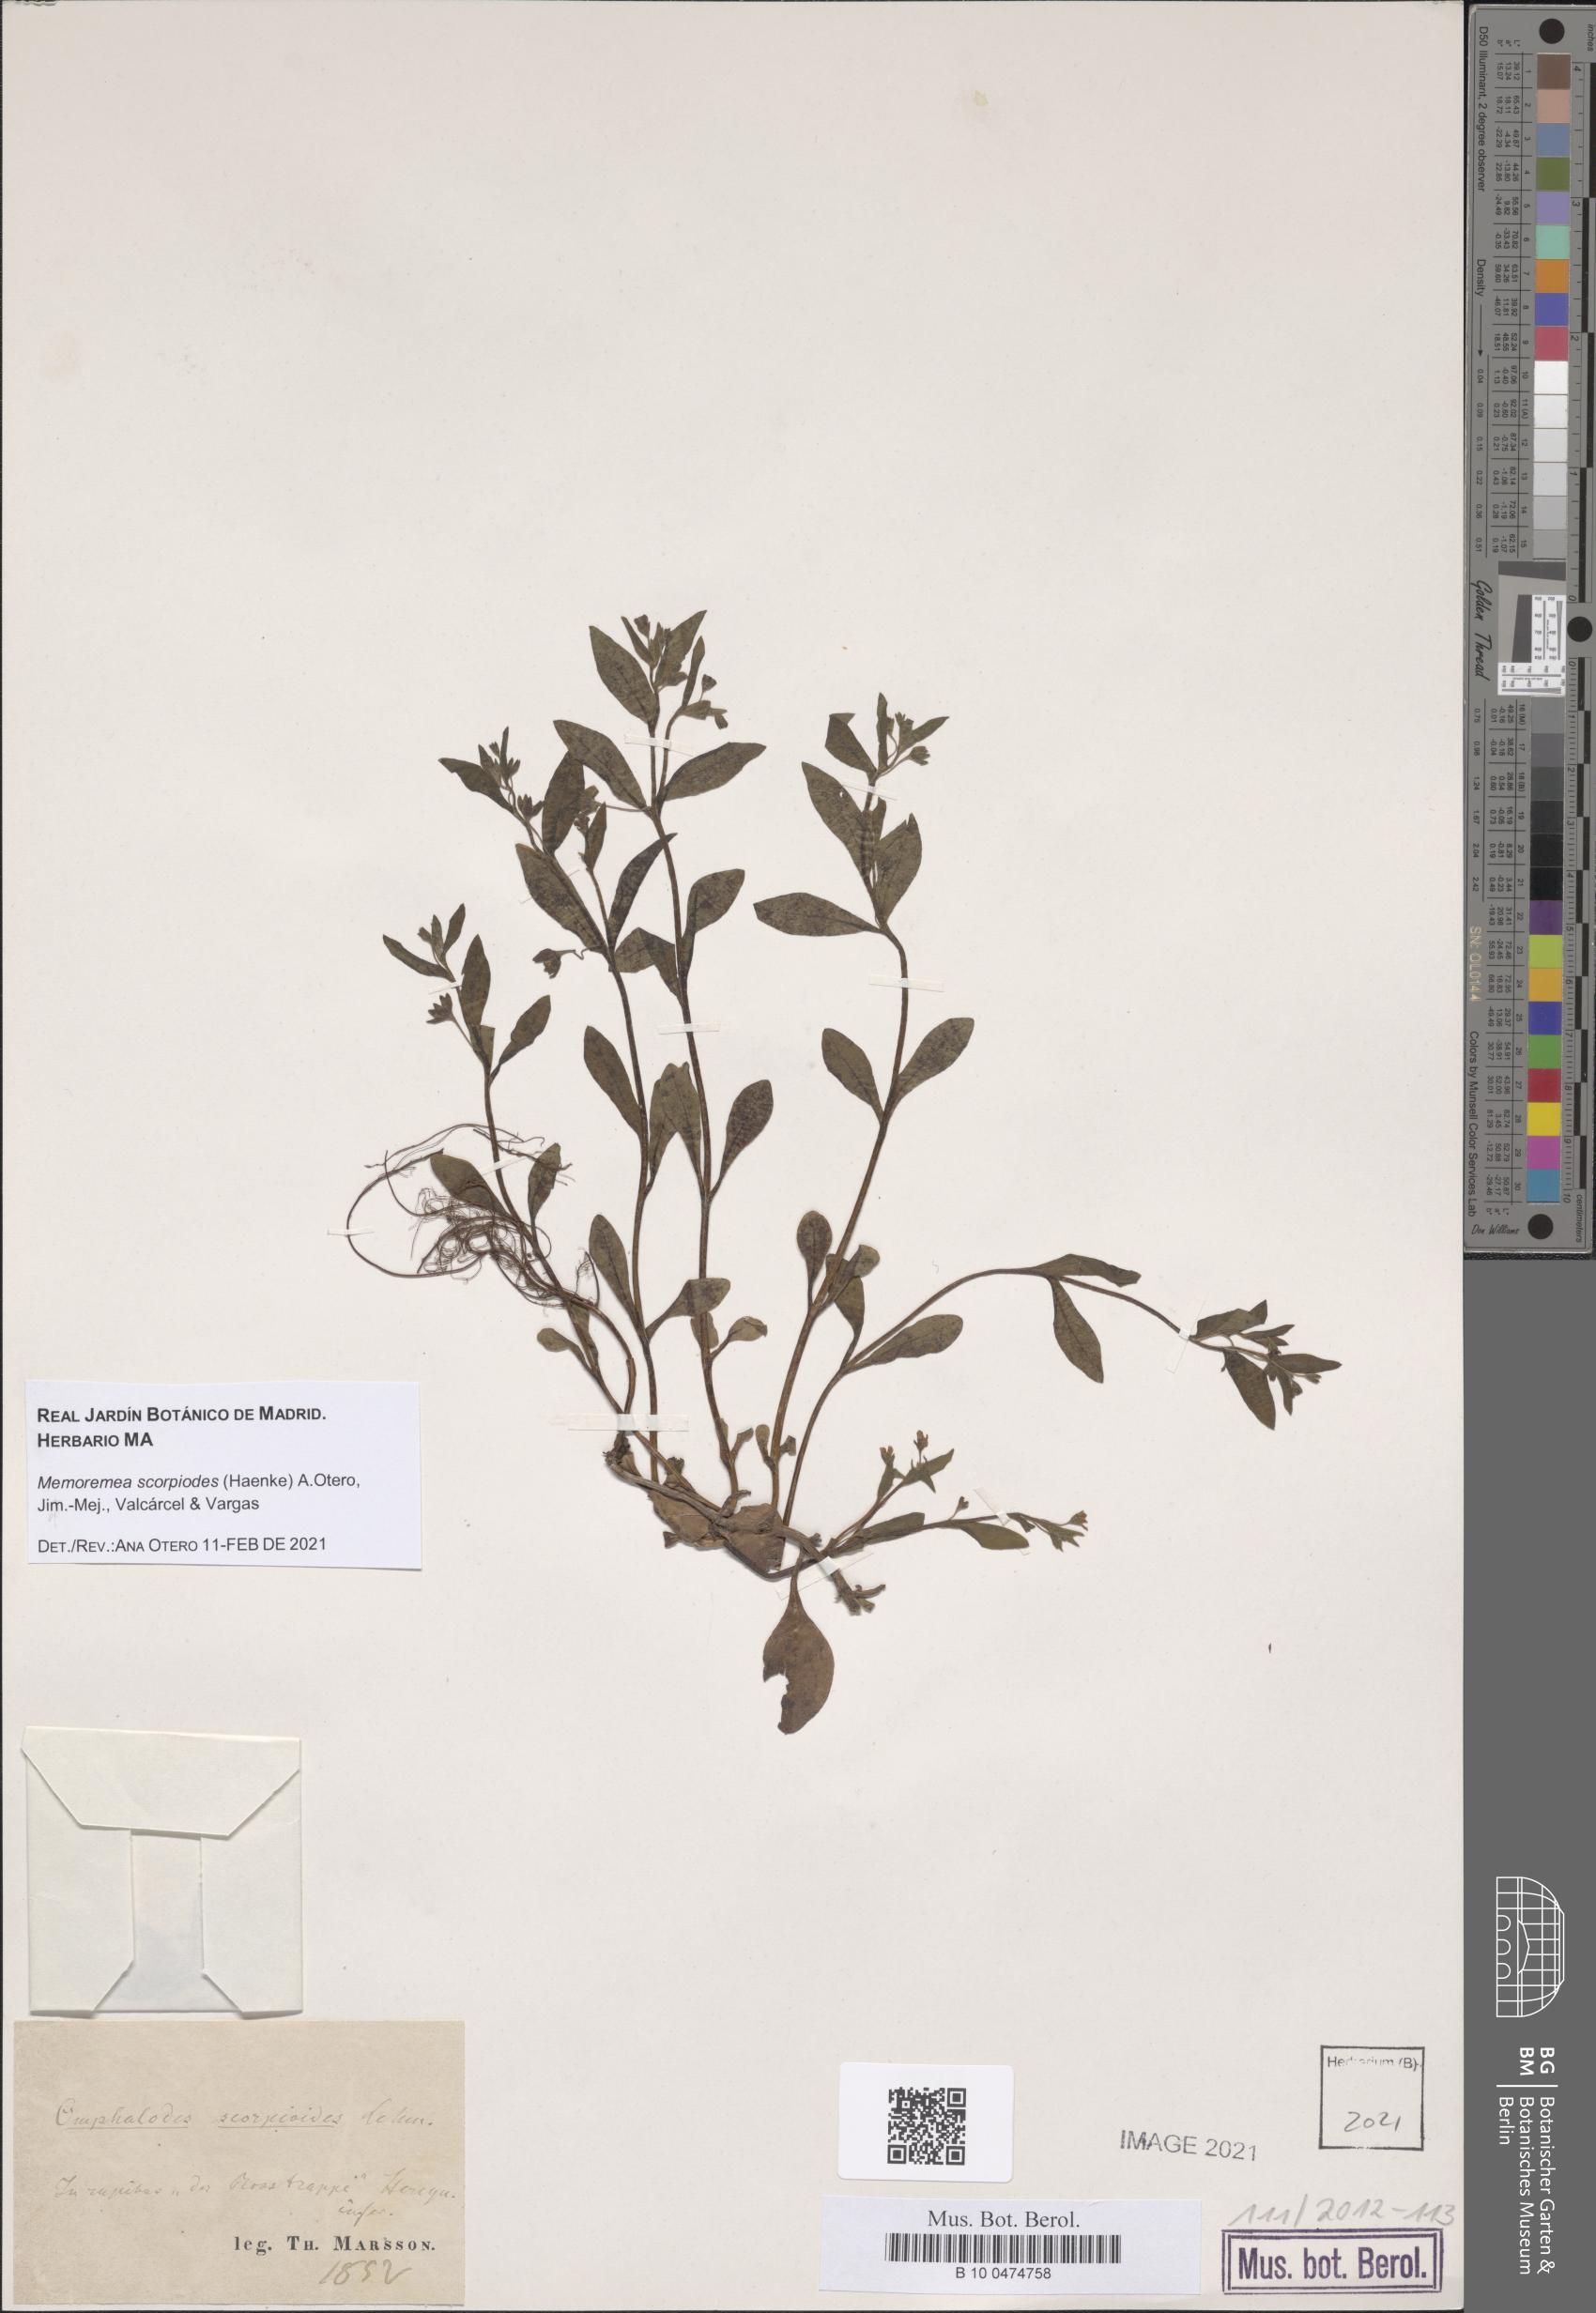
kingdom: Plantae
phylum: Tracheophyta
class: Magnoliopsida
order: Boraginales
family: Boraginaceae
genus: Memoremea
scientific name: Memoremea scorpioides
